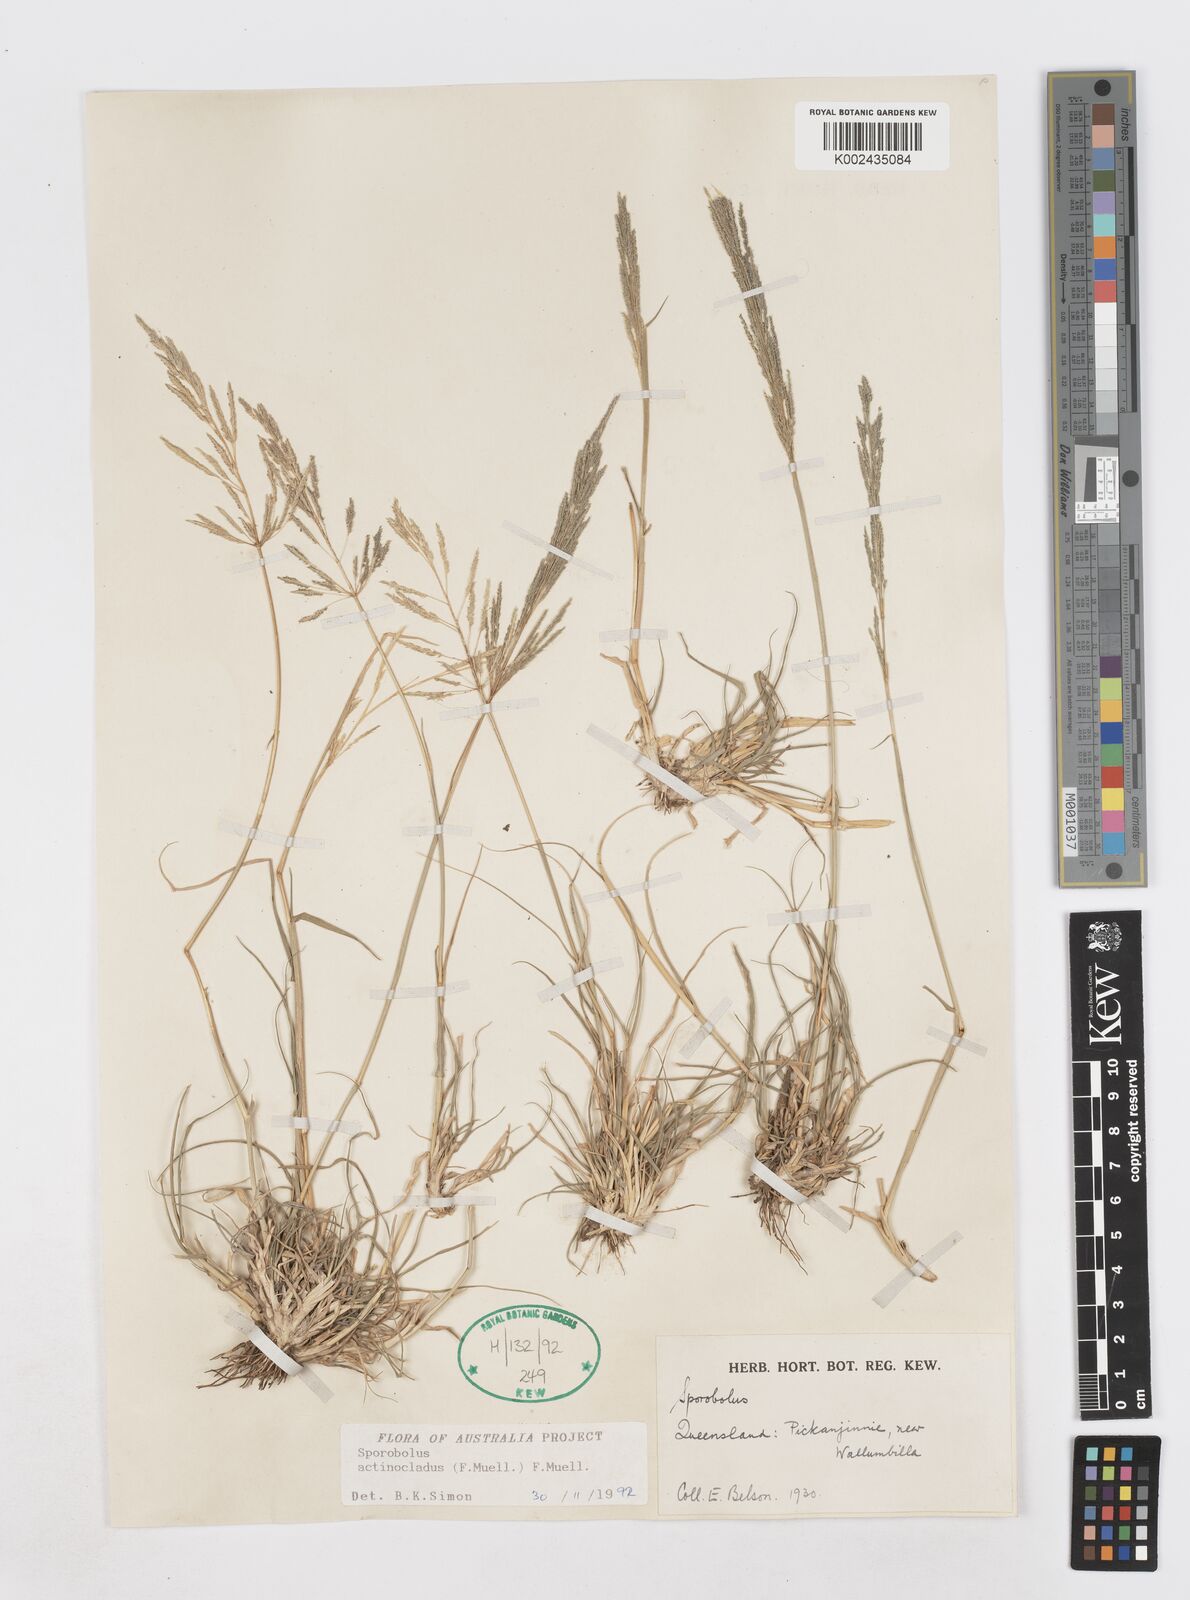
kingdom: Plantae
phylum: Tracheophyta
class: Liliopsida
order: Poales
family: Poaceae
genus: Sporobolus
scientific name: Sporobolus actinocladus
